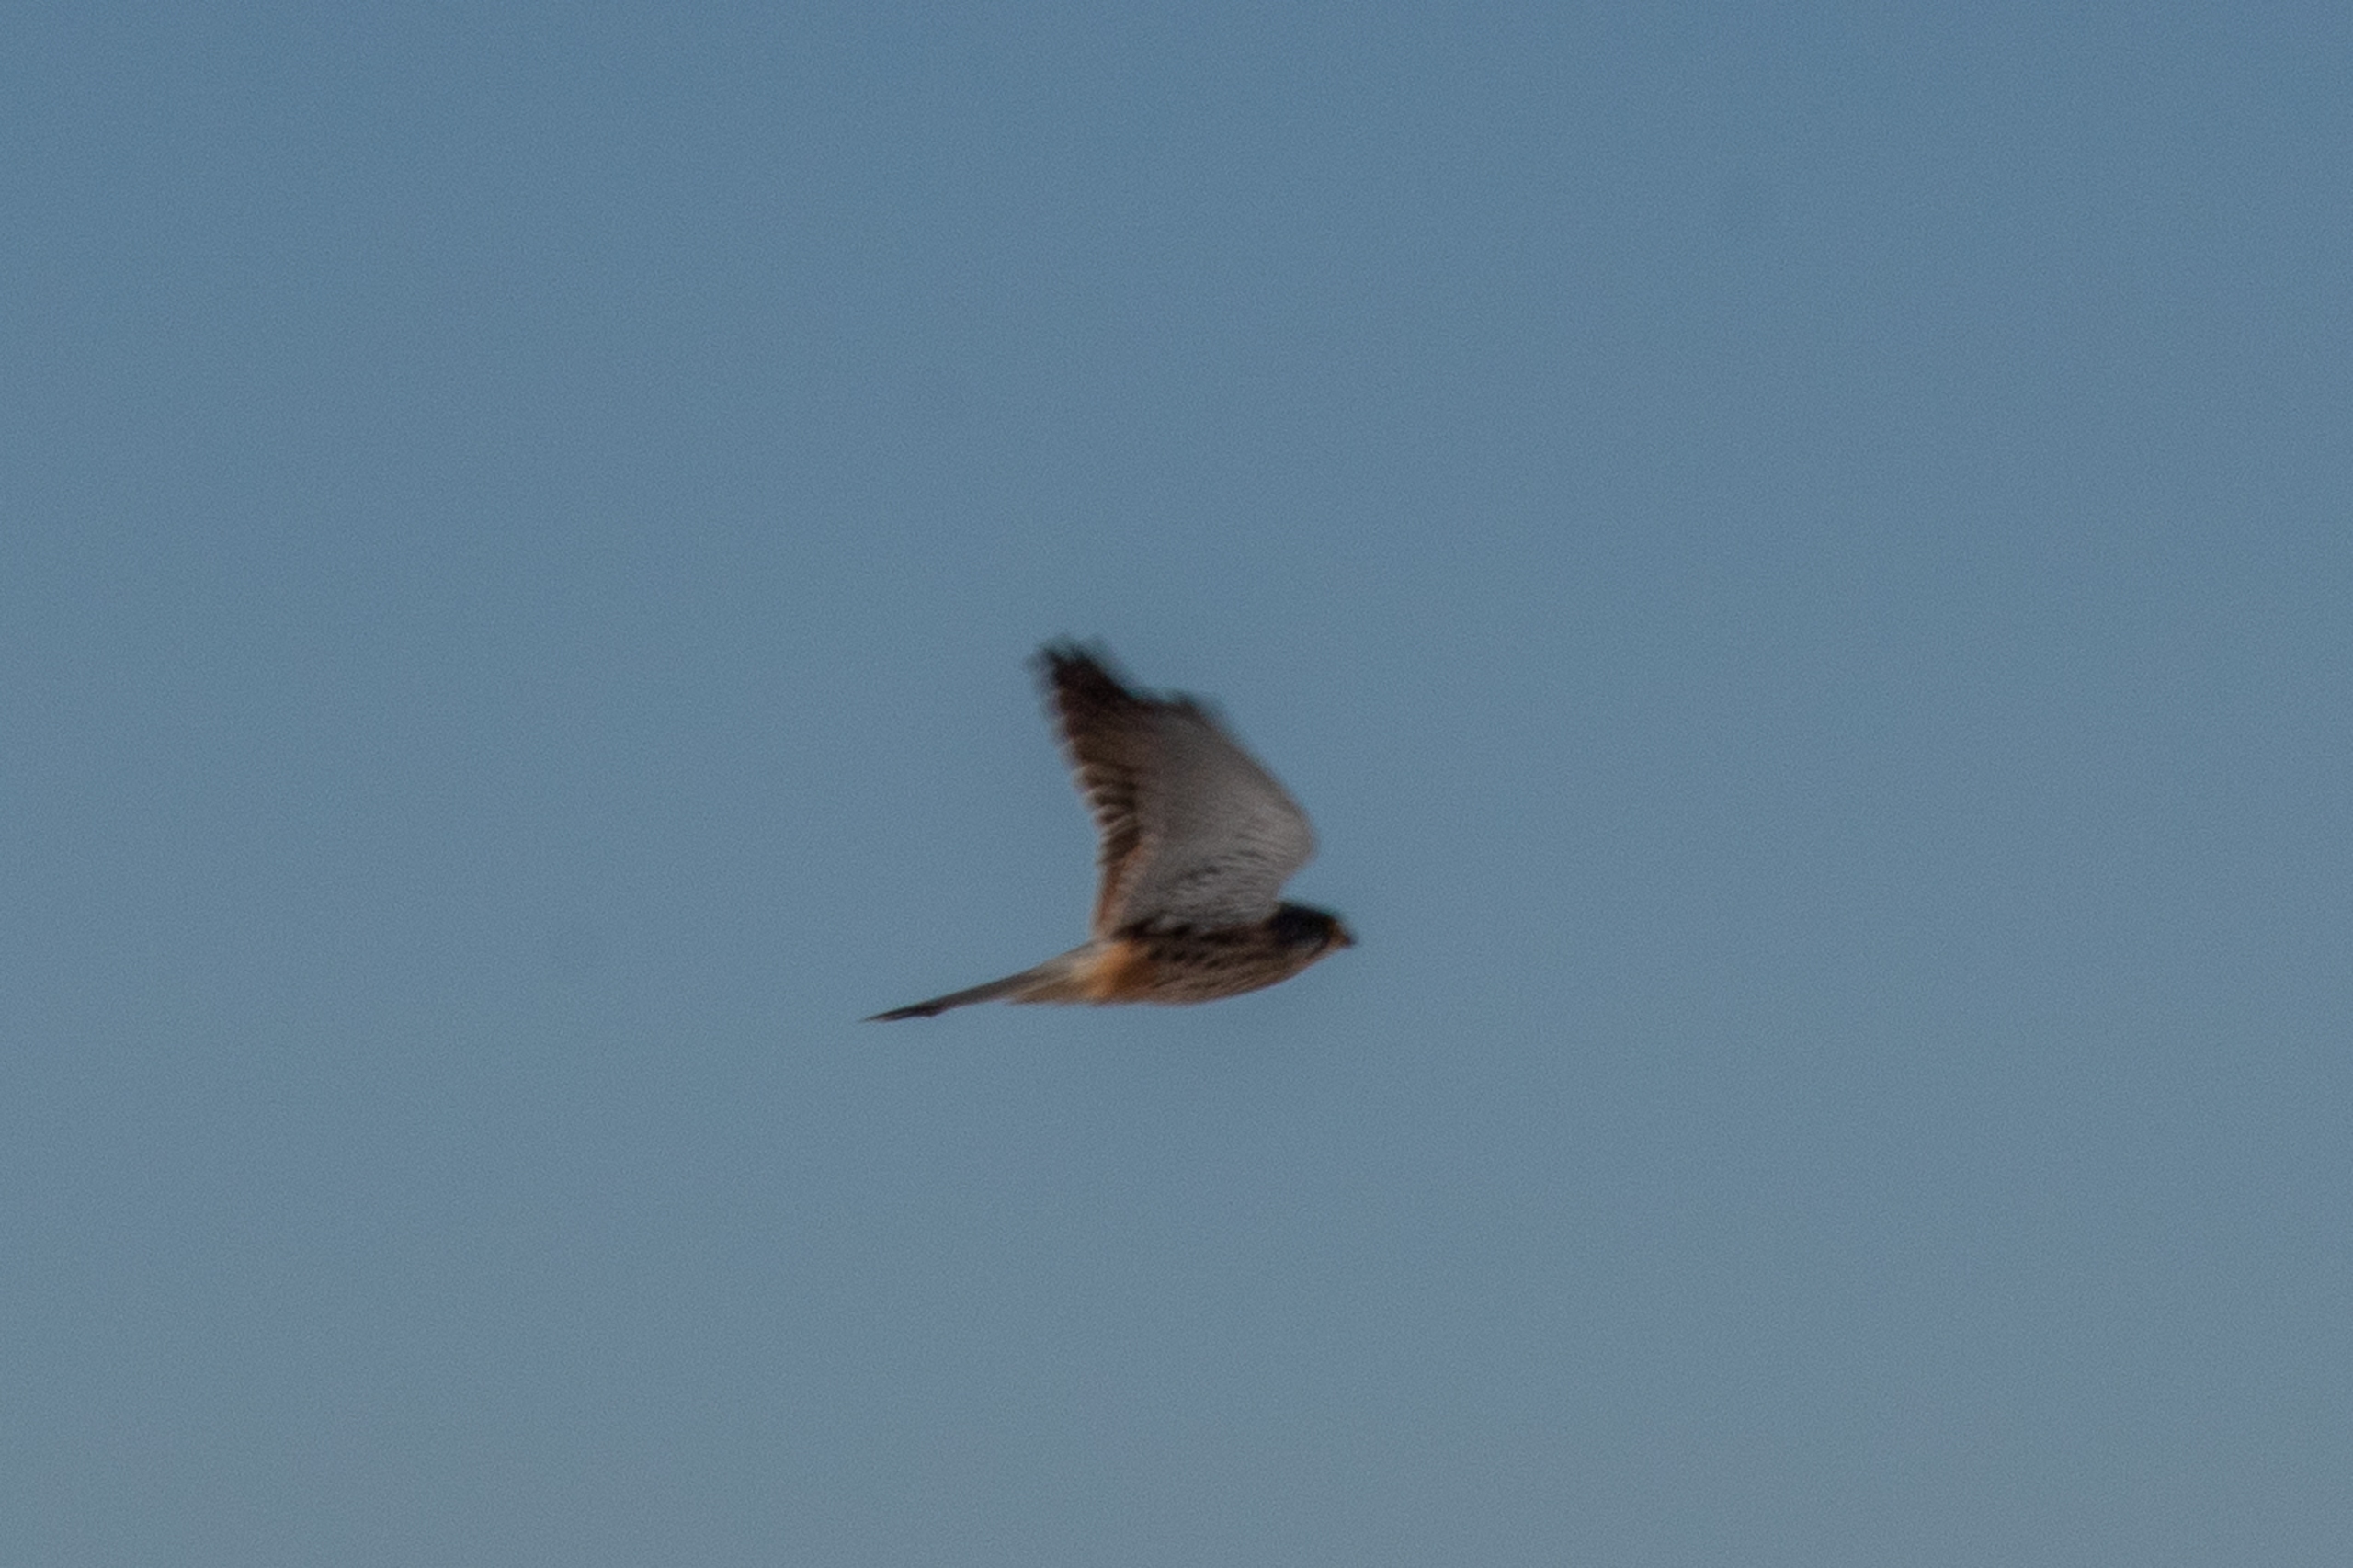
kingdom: Animalia
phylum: Chordata
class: Aves
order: Falconiformes
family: Falconidae
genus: Falco
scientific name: Falco tinnunculus
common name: Tårnfalk
